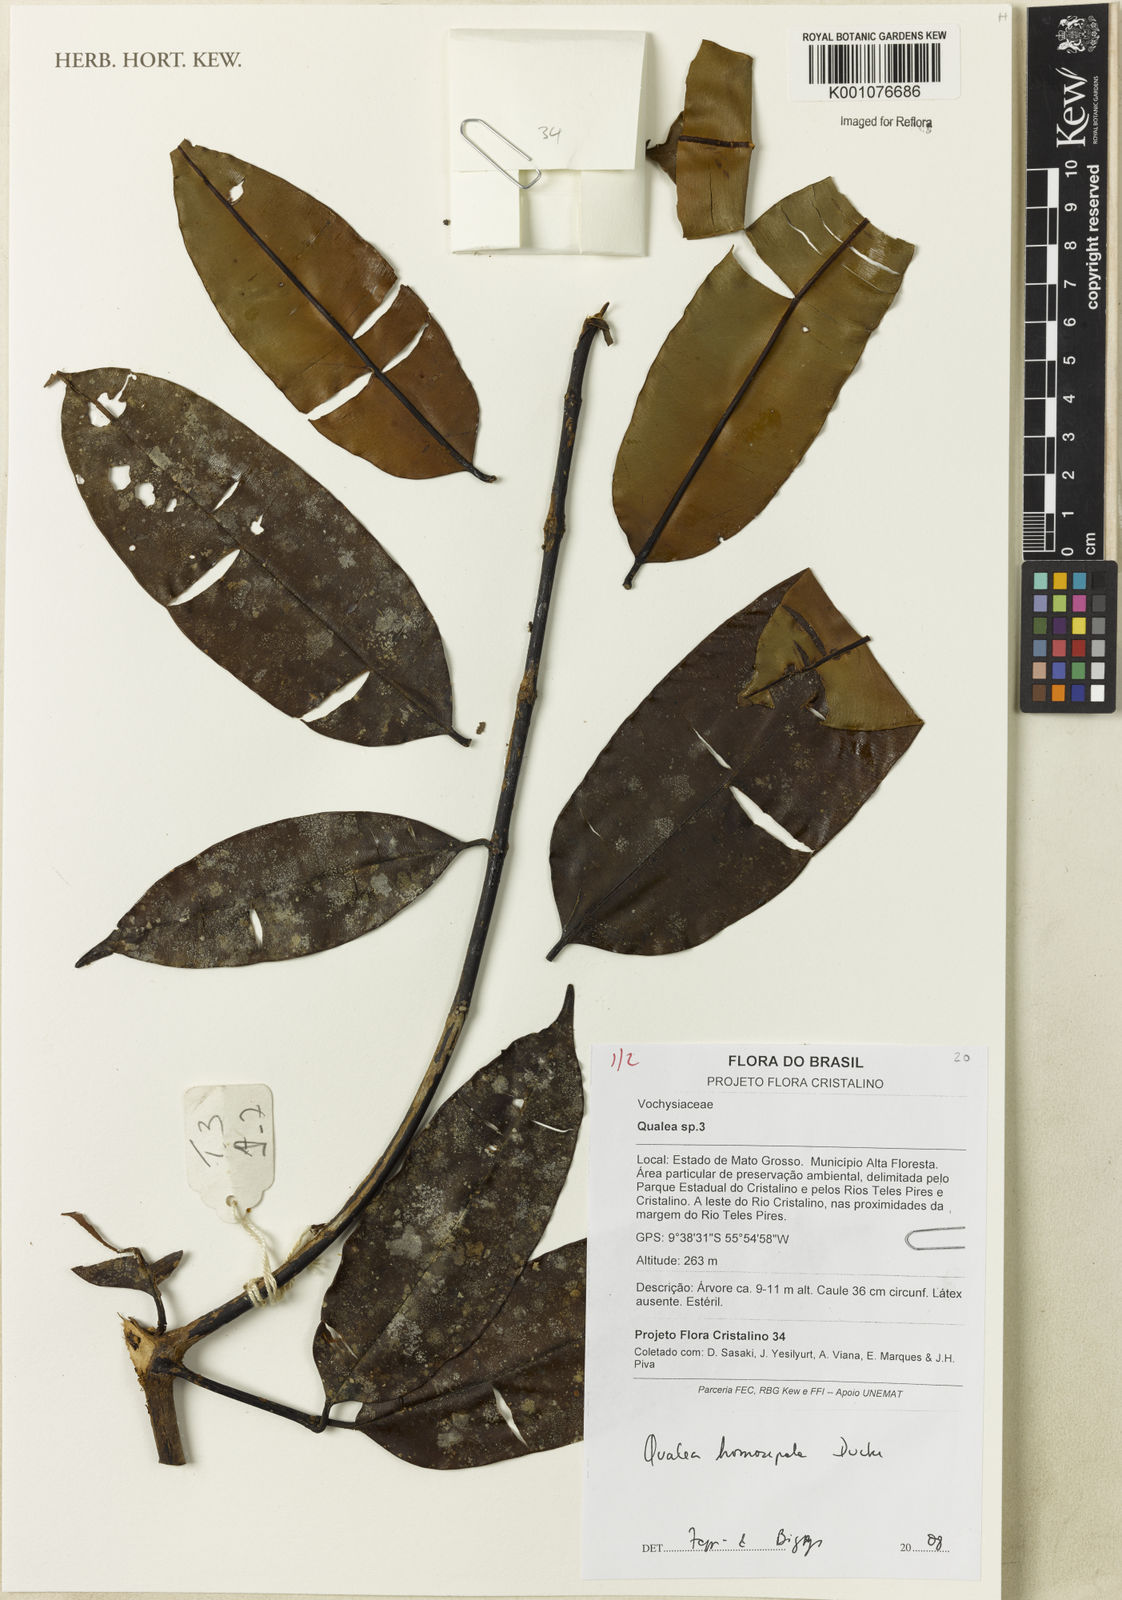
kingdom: Plantae
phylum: Tracheophyta
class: Magnoliopsida
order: Myrtales
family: Vochysiaceae
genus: Qualea
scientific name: Qualea homosepala
